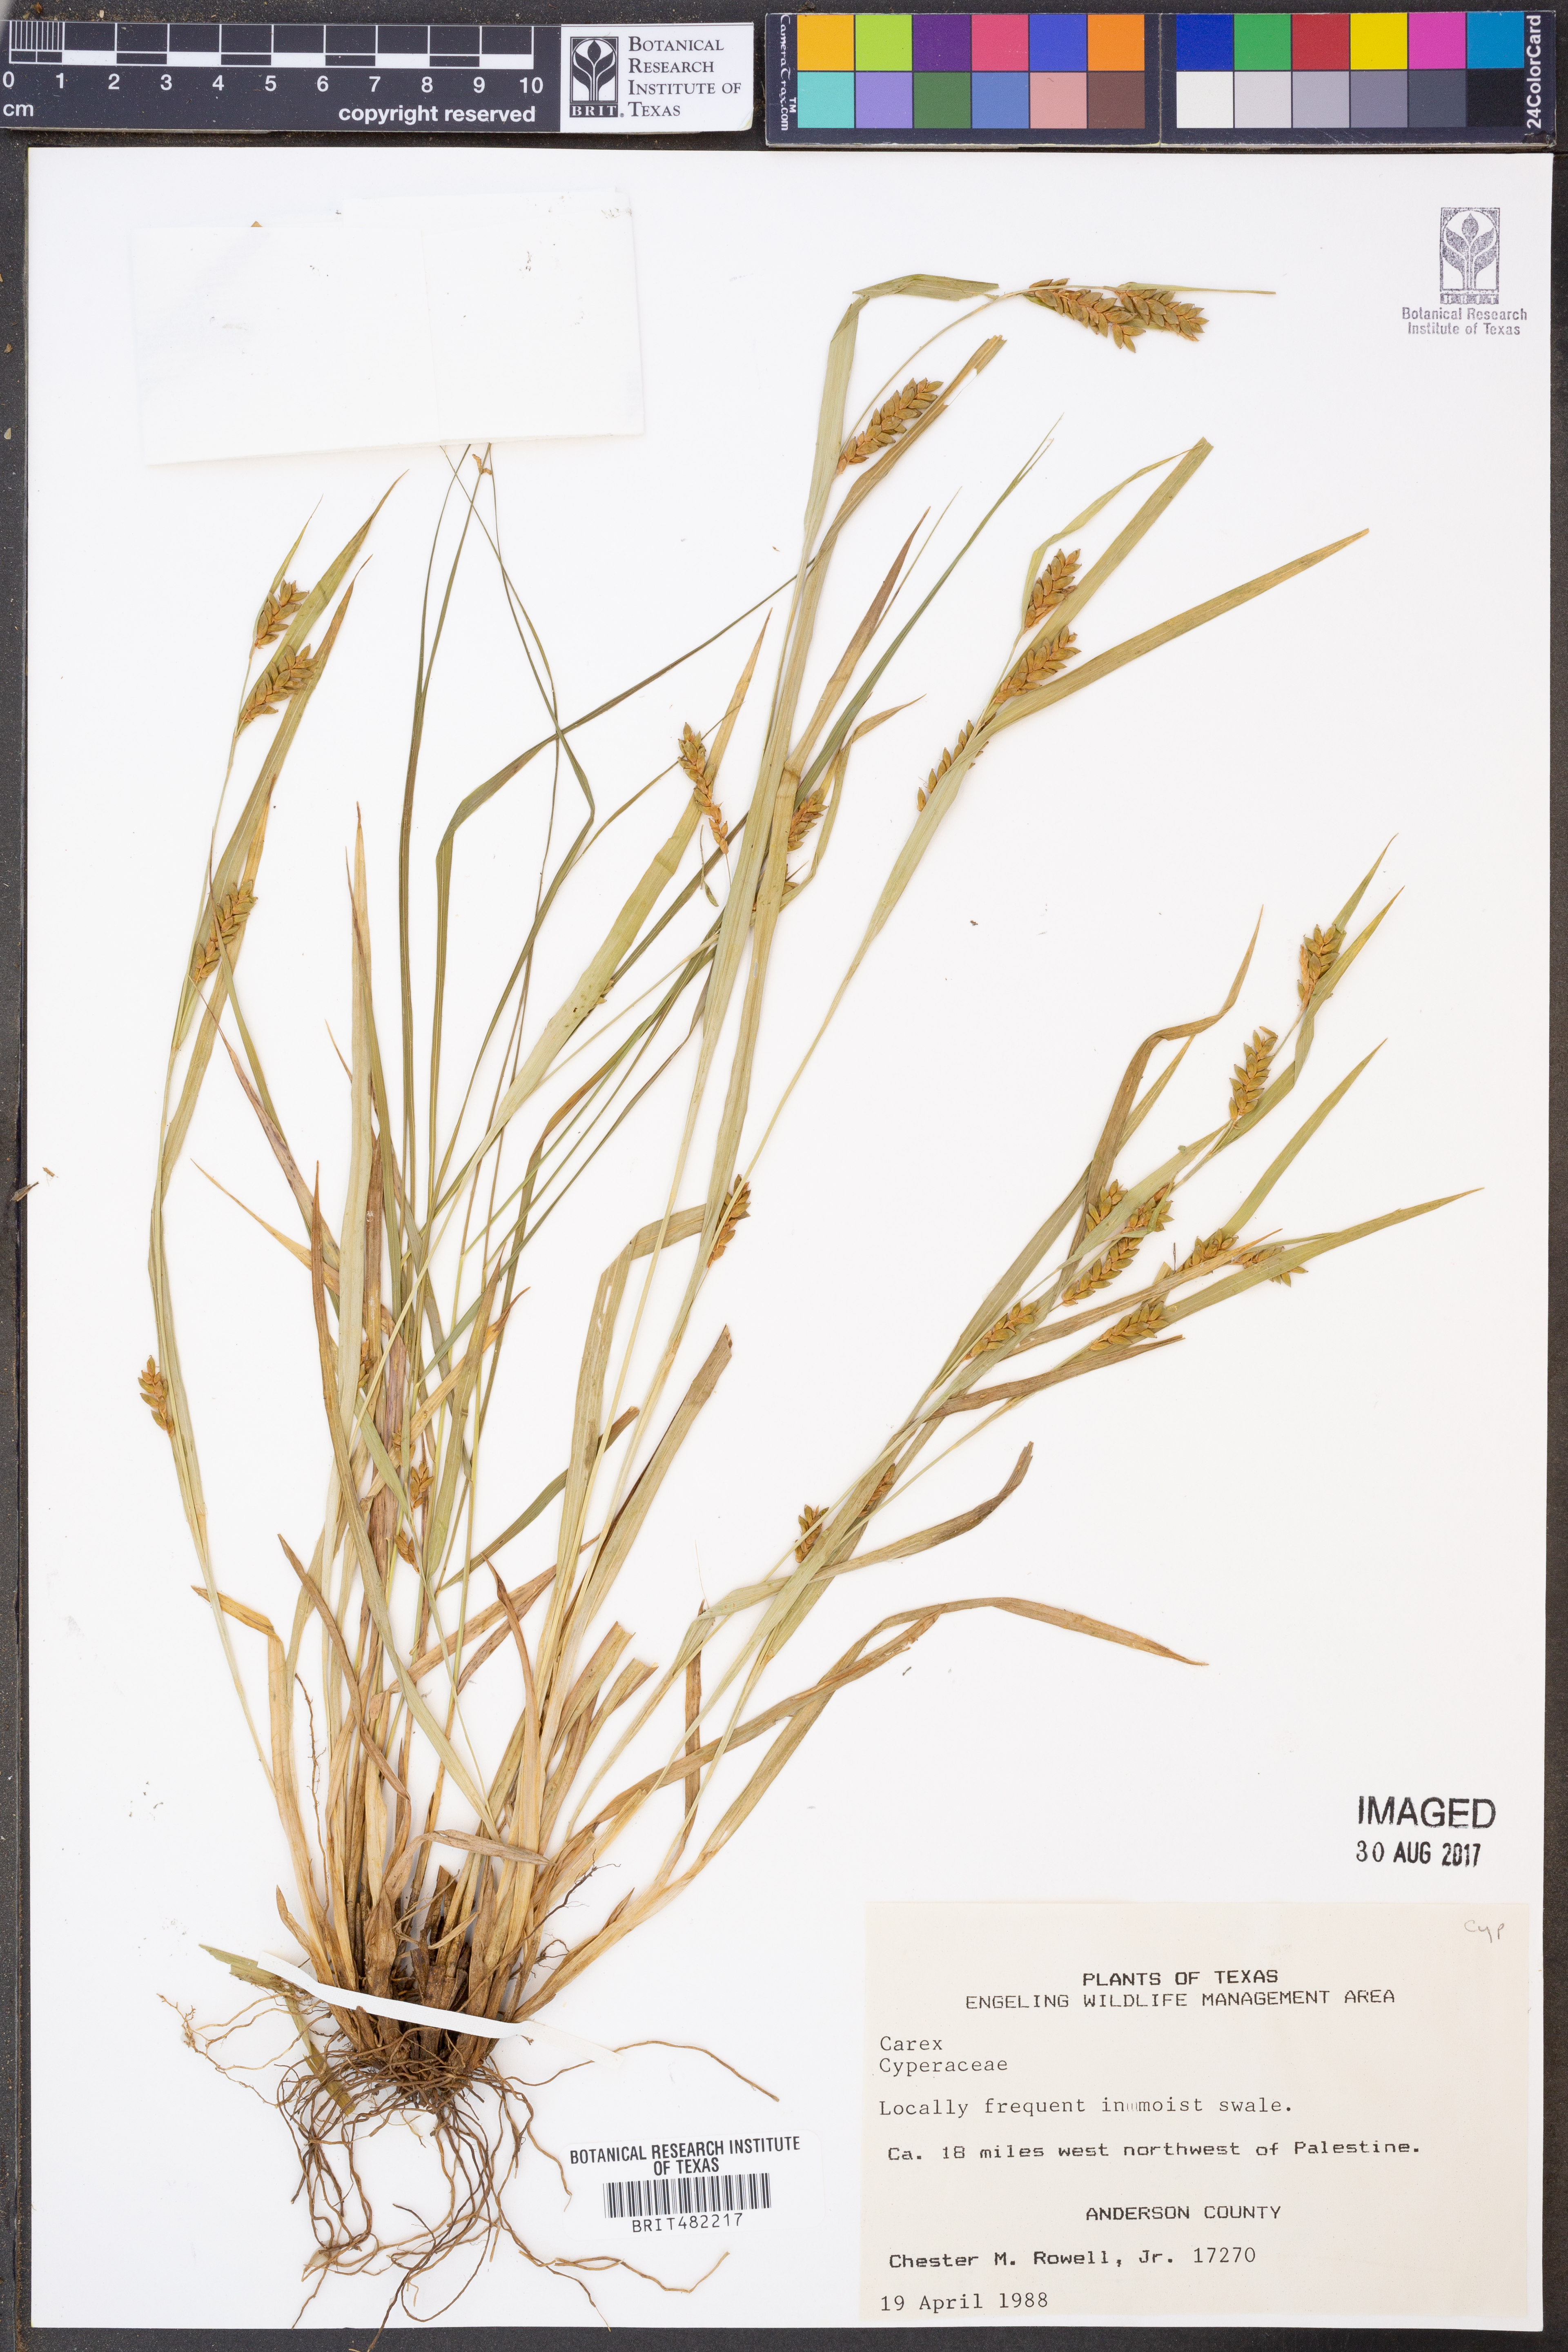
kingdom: Plantae
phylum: Tracheophyta
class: Liliopsida
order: Poales
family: Cyperaceae
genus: Carex
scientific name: Carex
